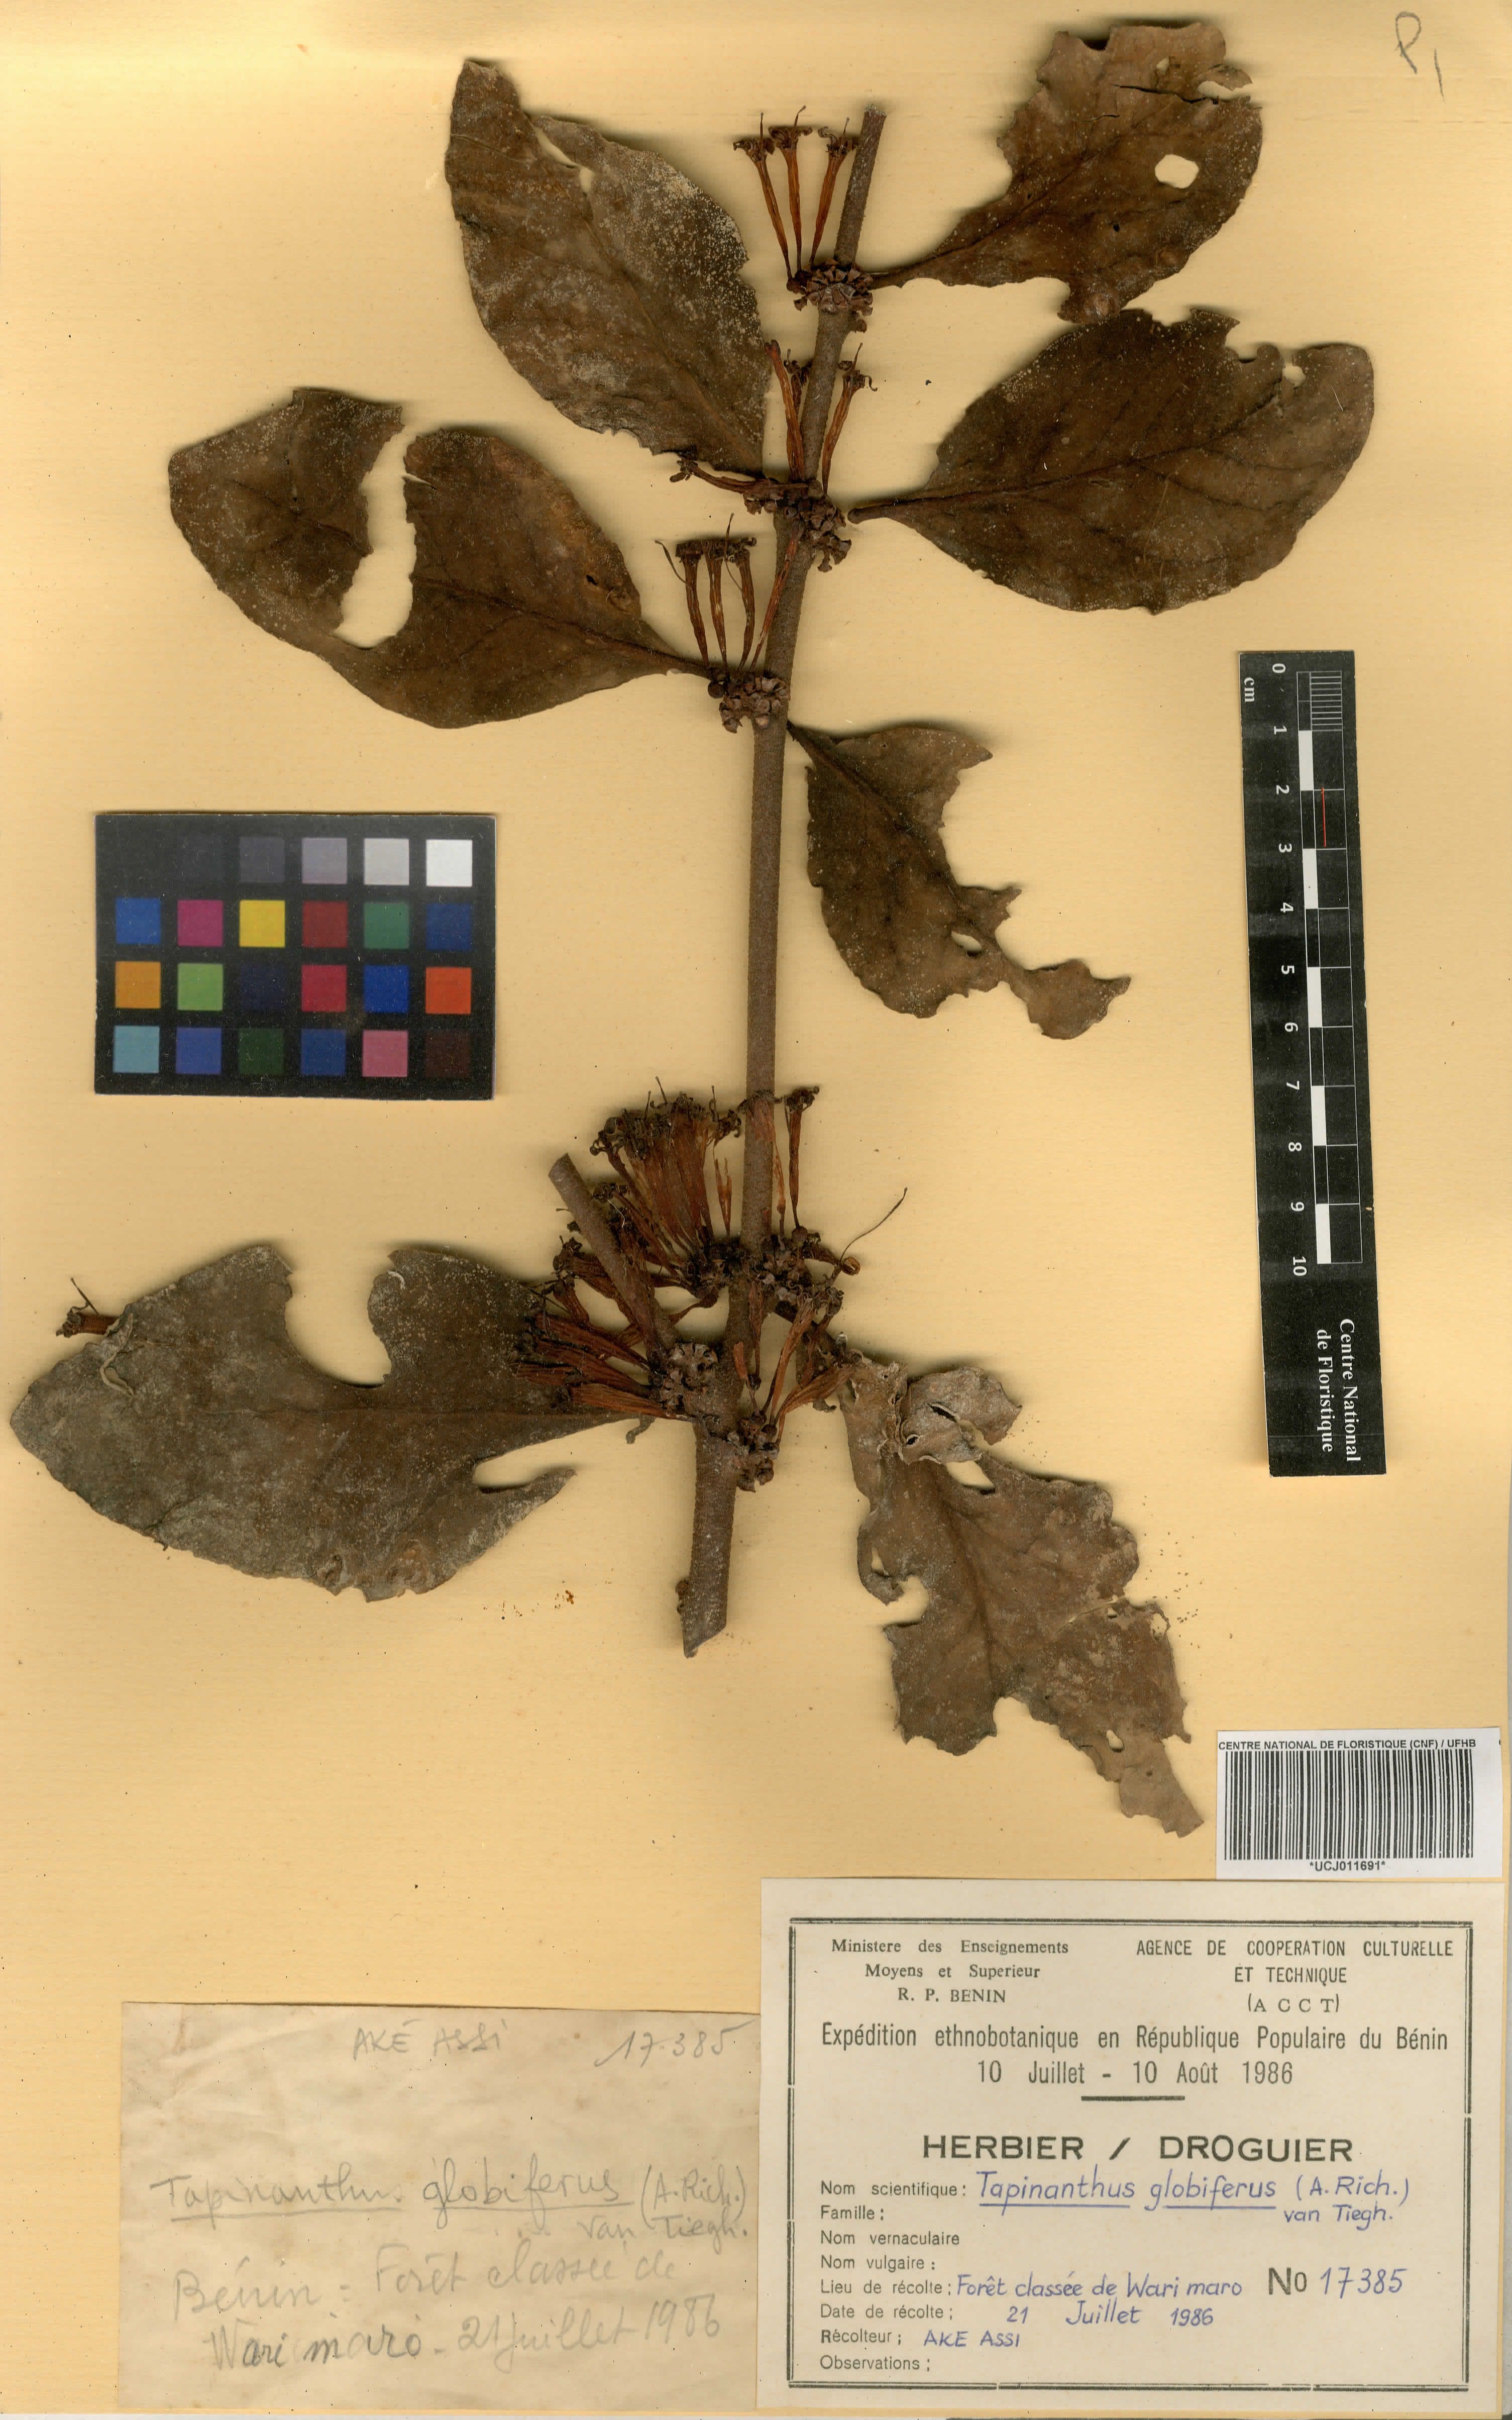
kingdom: Plantae
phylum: Tracheophyta
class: Magnoliopsida
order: Santalales
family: Loranthaceae
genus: Tapinanthus
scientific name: Tapinanthus globiferus
